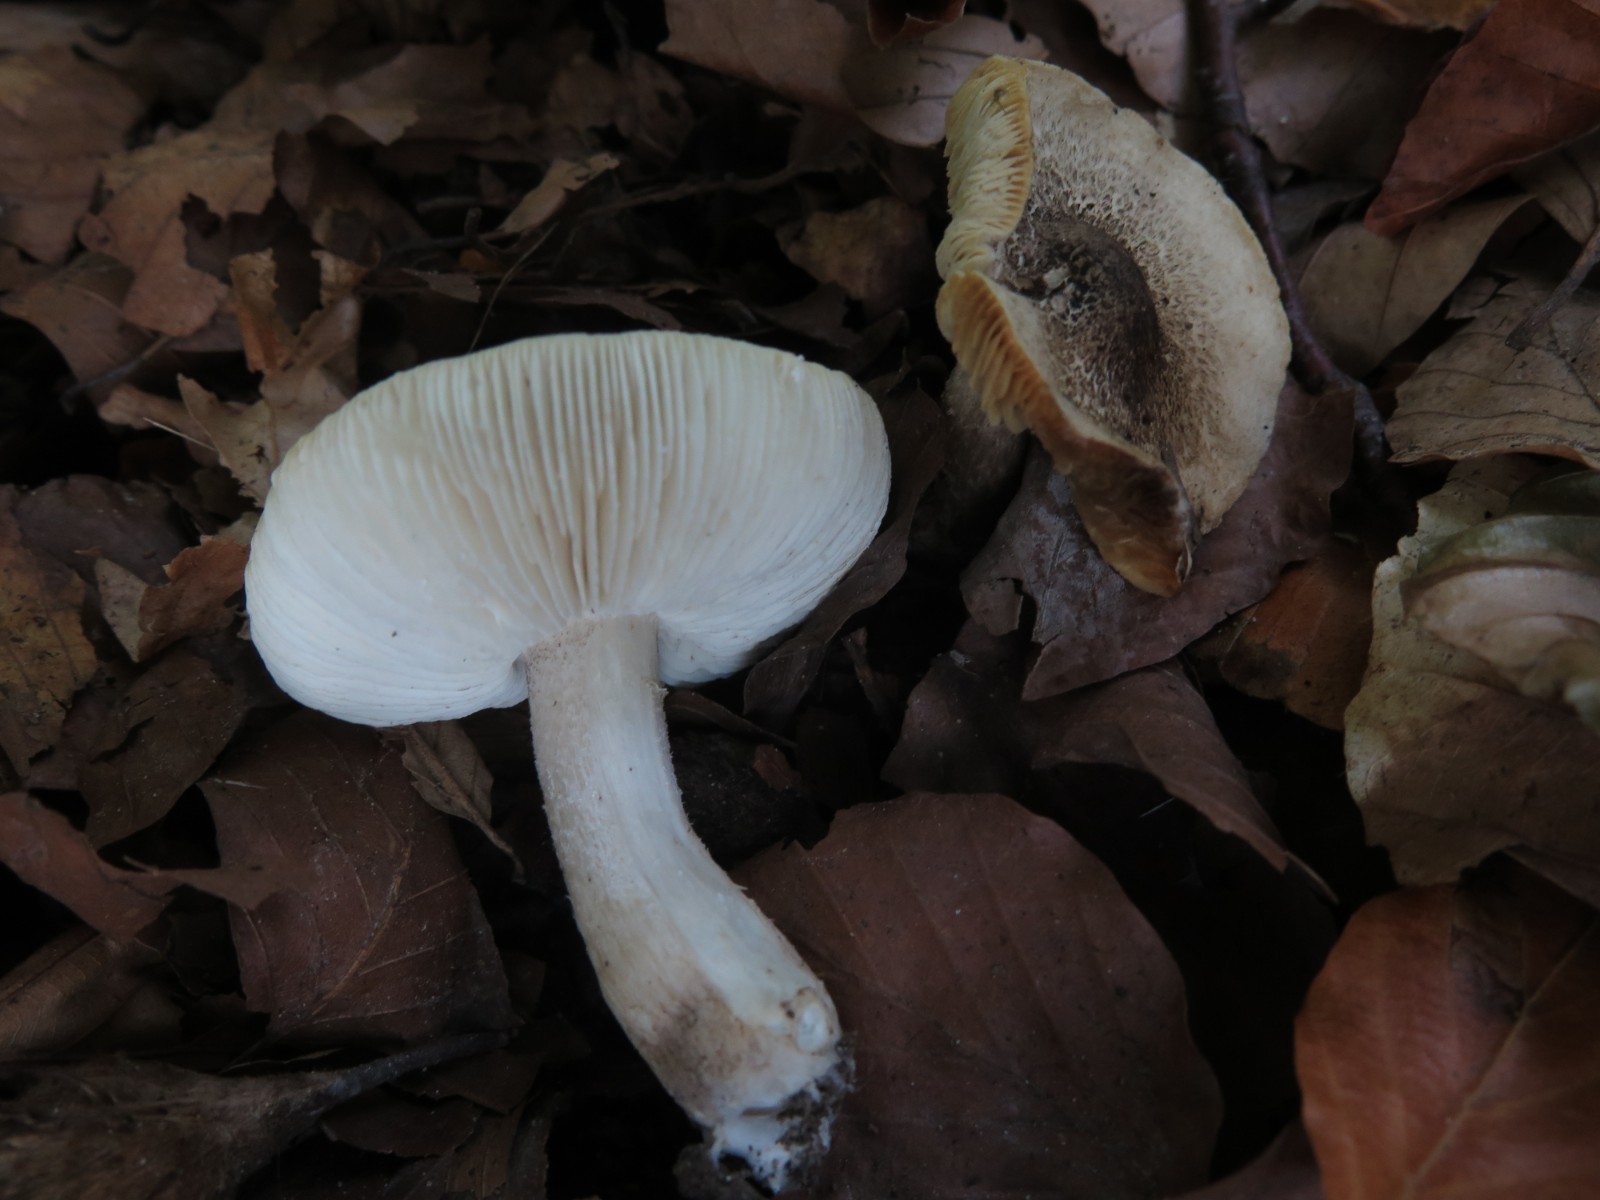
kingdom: Fungi
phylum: Basidiomycota
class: Agaricomycetes
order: Agaricales
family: Tricholomataceae
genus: Tricholoma
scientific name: Tricholoma scalpturatum
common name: gulplettet ridderhat
